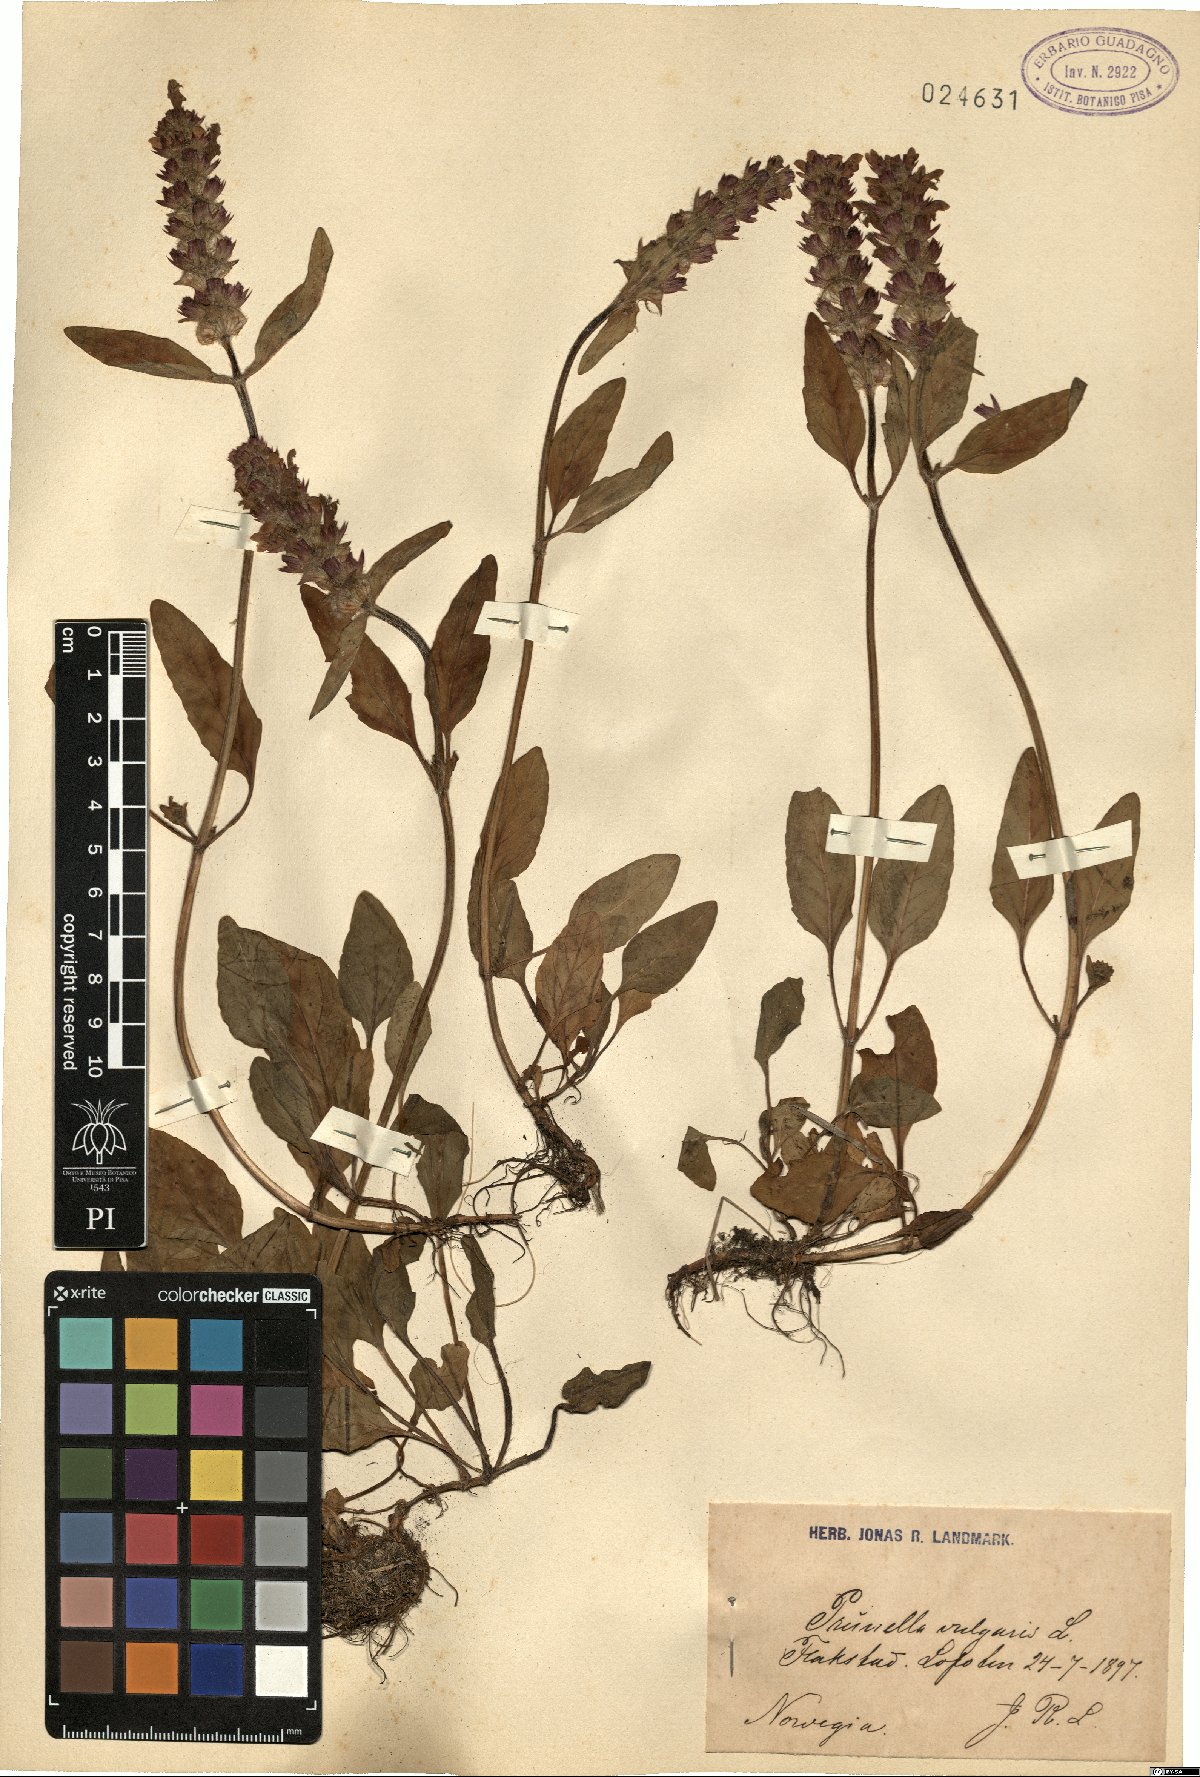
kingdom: Plantae
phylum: Tracheophyta
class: Magnoliopsida
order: Lamiales
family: Lamiaceae
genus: Prunella
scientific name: Prunella vulgaris
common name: Heal-all
